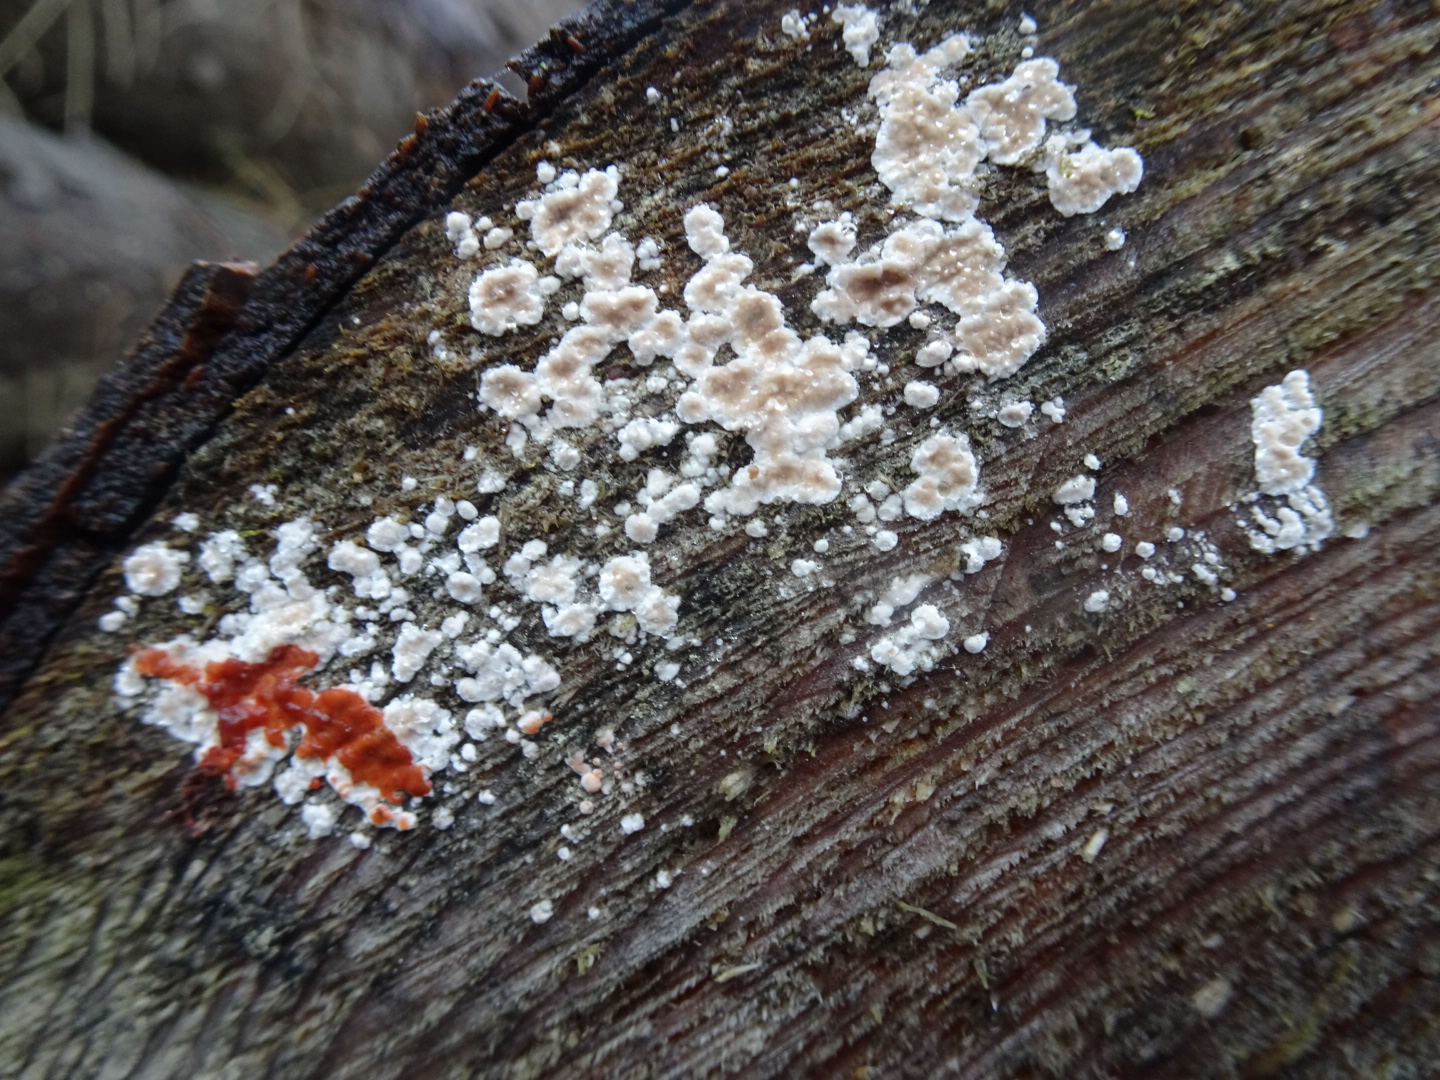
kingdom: Fungi
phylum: Basidiomycota
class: Agaricomycetes
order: Russulales
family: Stereaceae
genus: Stereum
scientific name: Stereum sanguinolentum
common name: blødende lædersvamp
